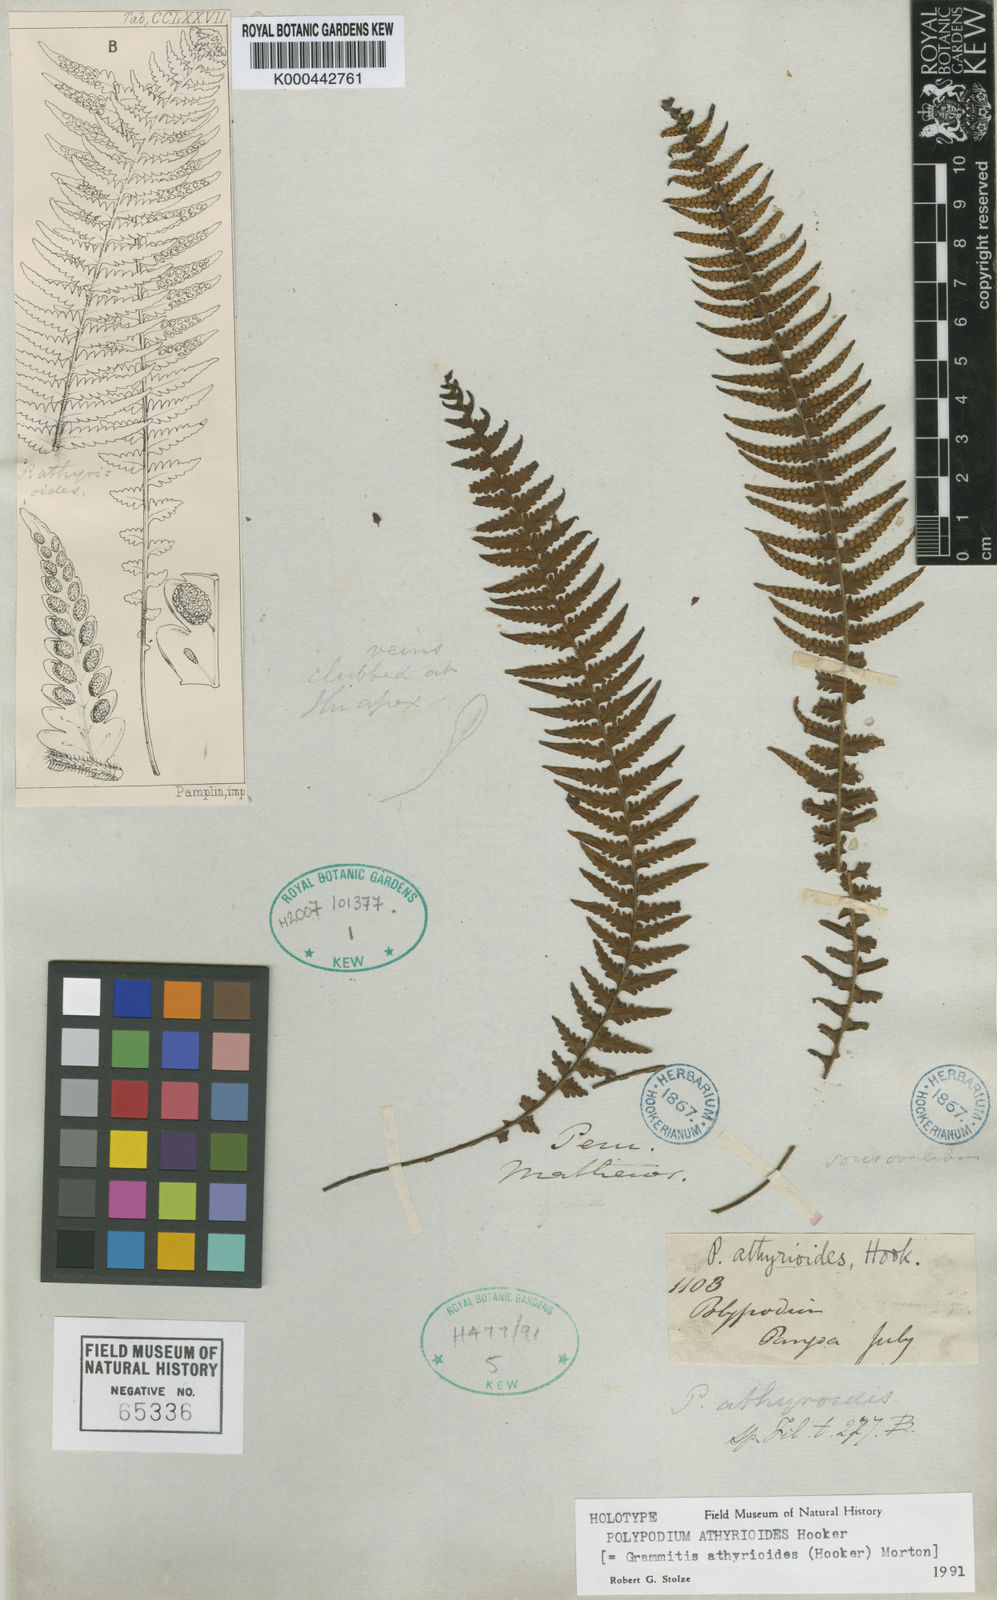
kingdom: Plantae
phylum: Tracheophyta
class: Polypodiopsida
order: Polypodiales
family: Polypodiaceae
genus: Ascogrammitis
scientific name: Ascogrammitis athyrioides
